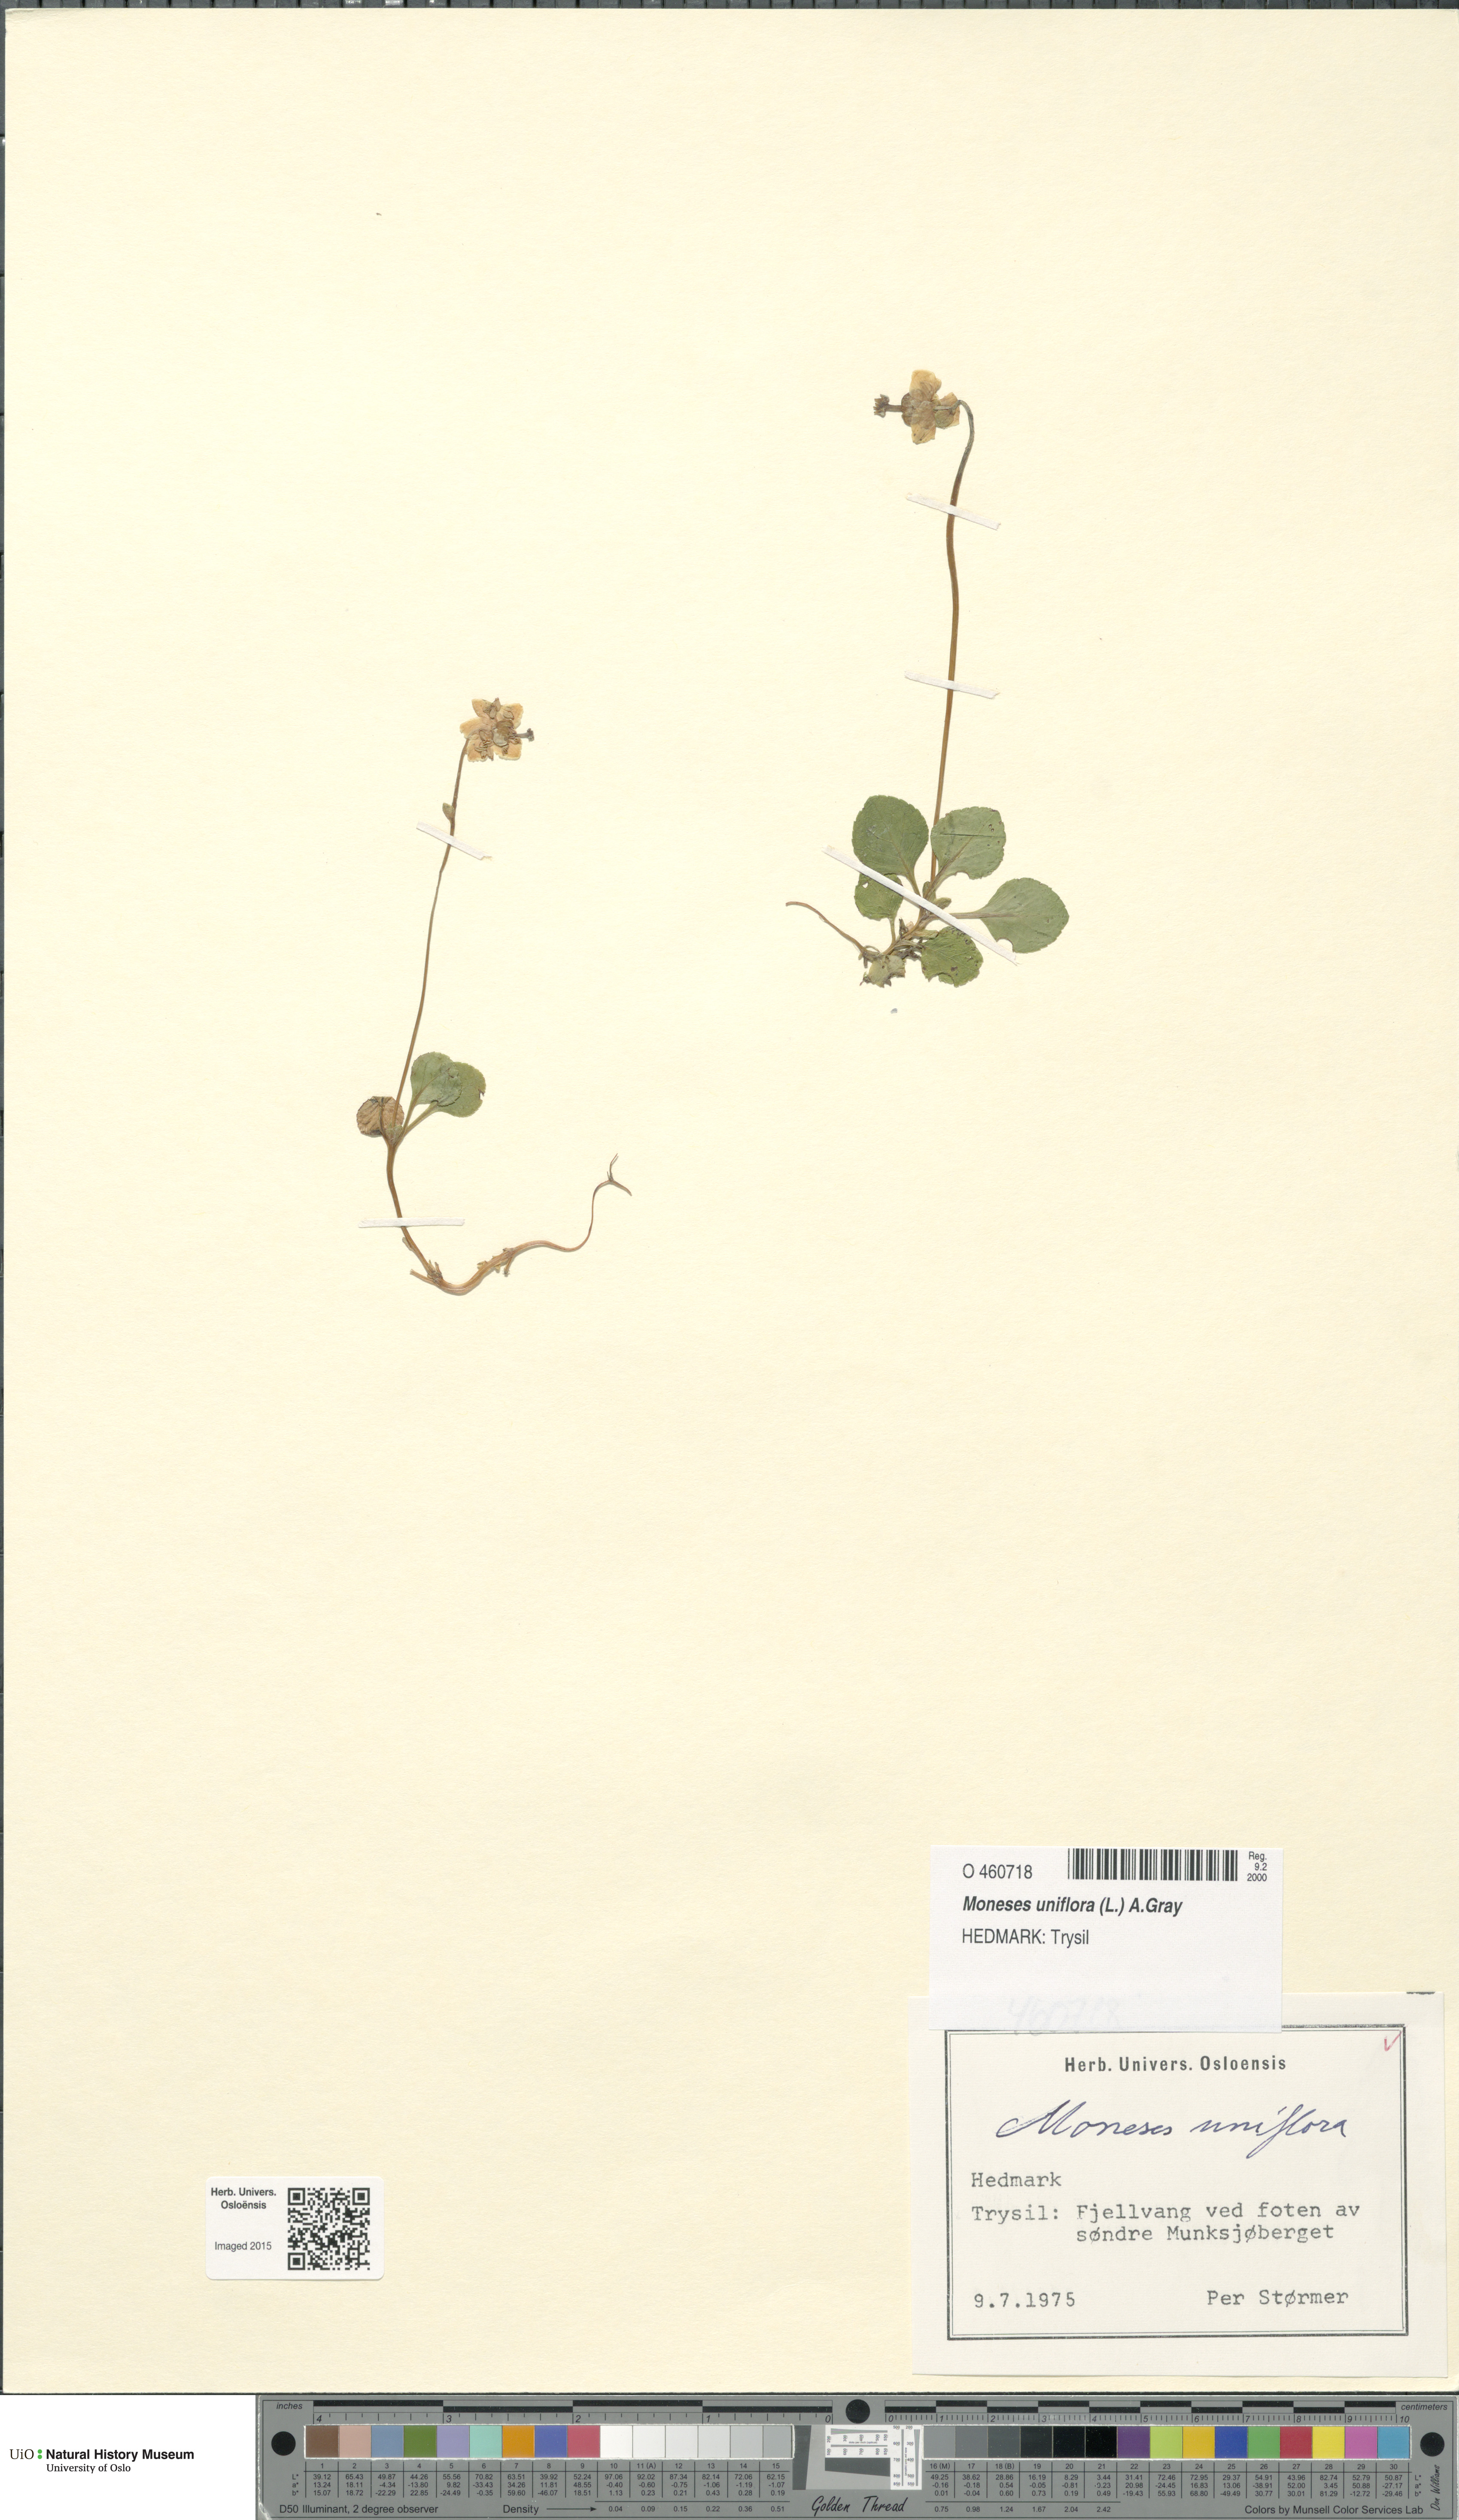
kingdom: Plantae
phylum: Tracheophyta
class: Magnoliopsida
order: Ericales
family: Ericaceae
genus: Moneses
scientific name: Moneses uniflora
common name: One-flowered wintergreen
